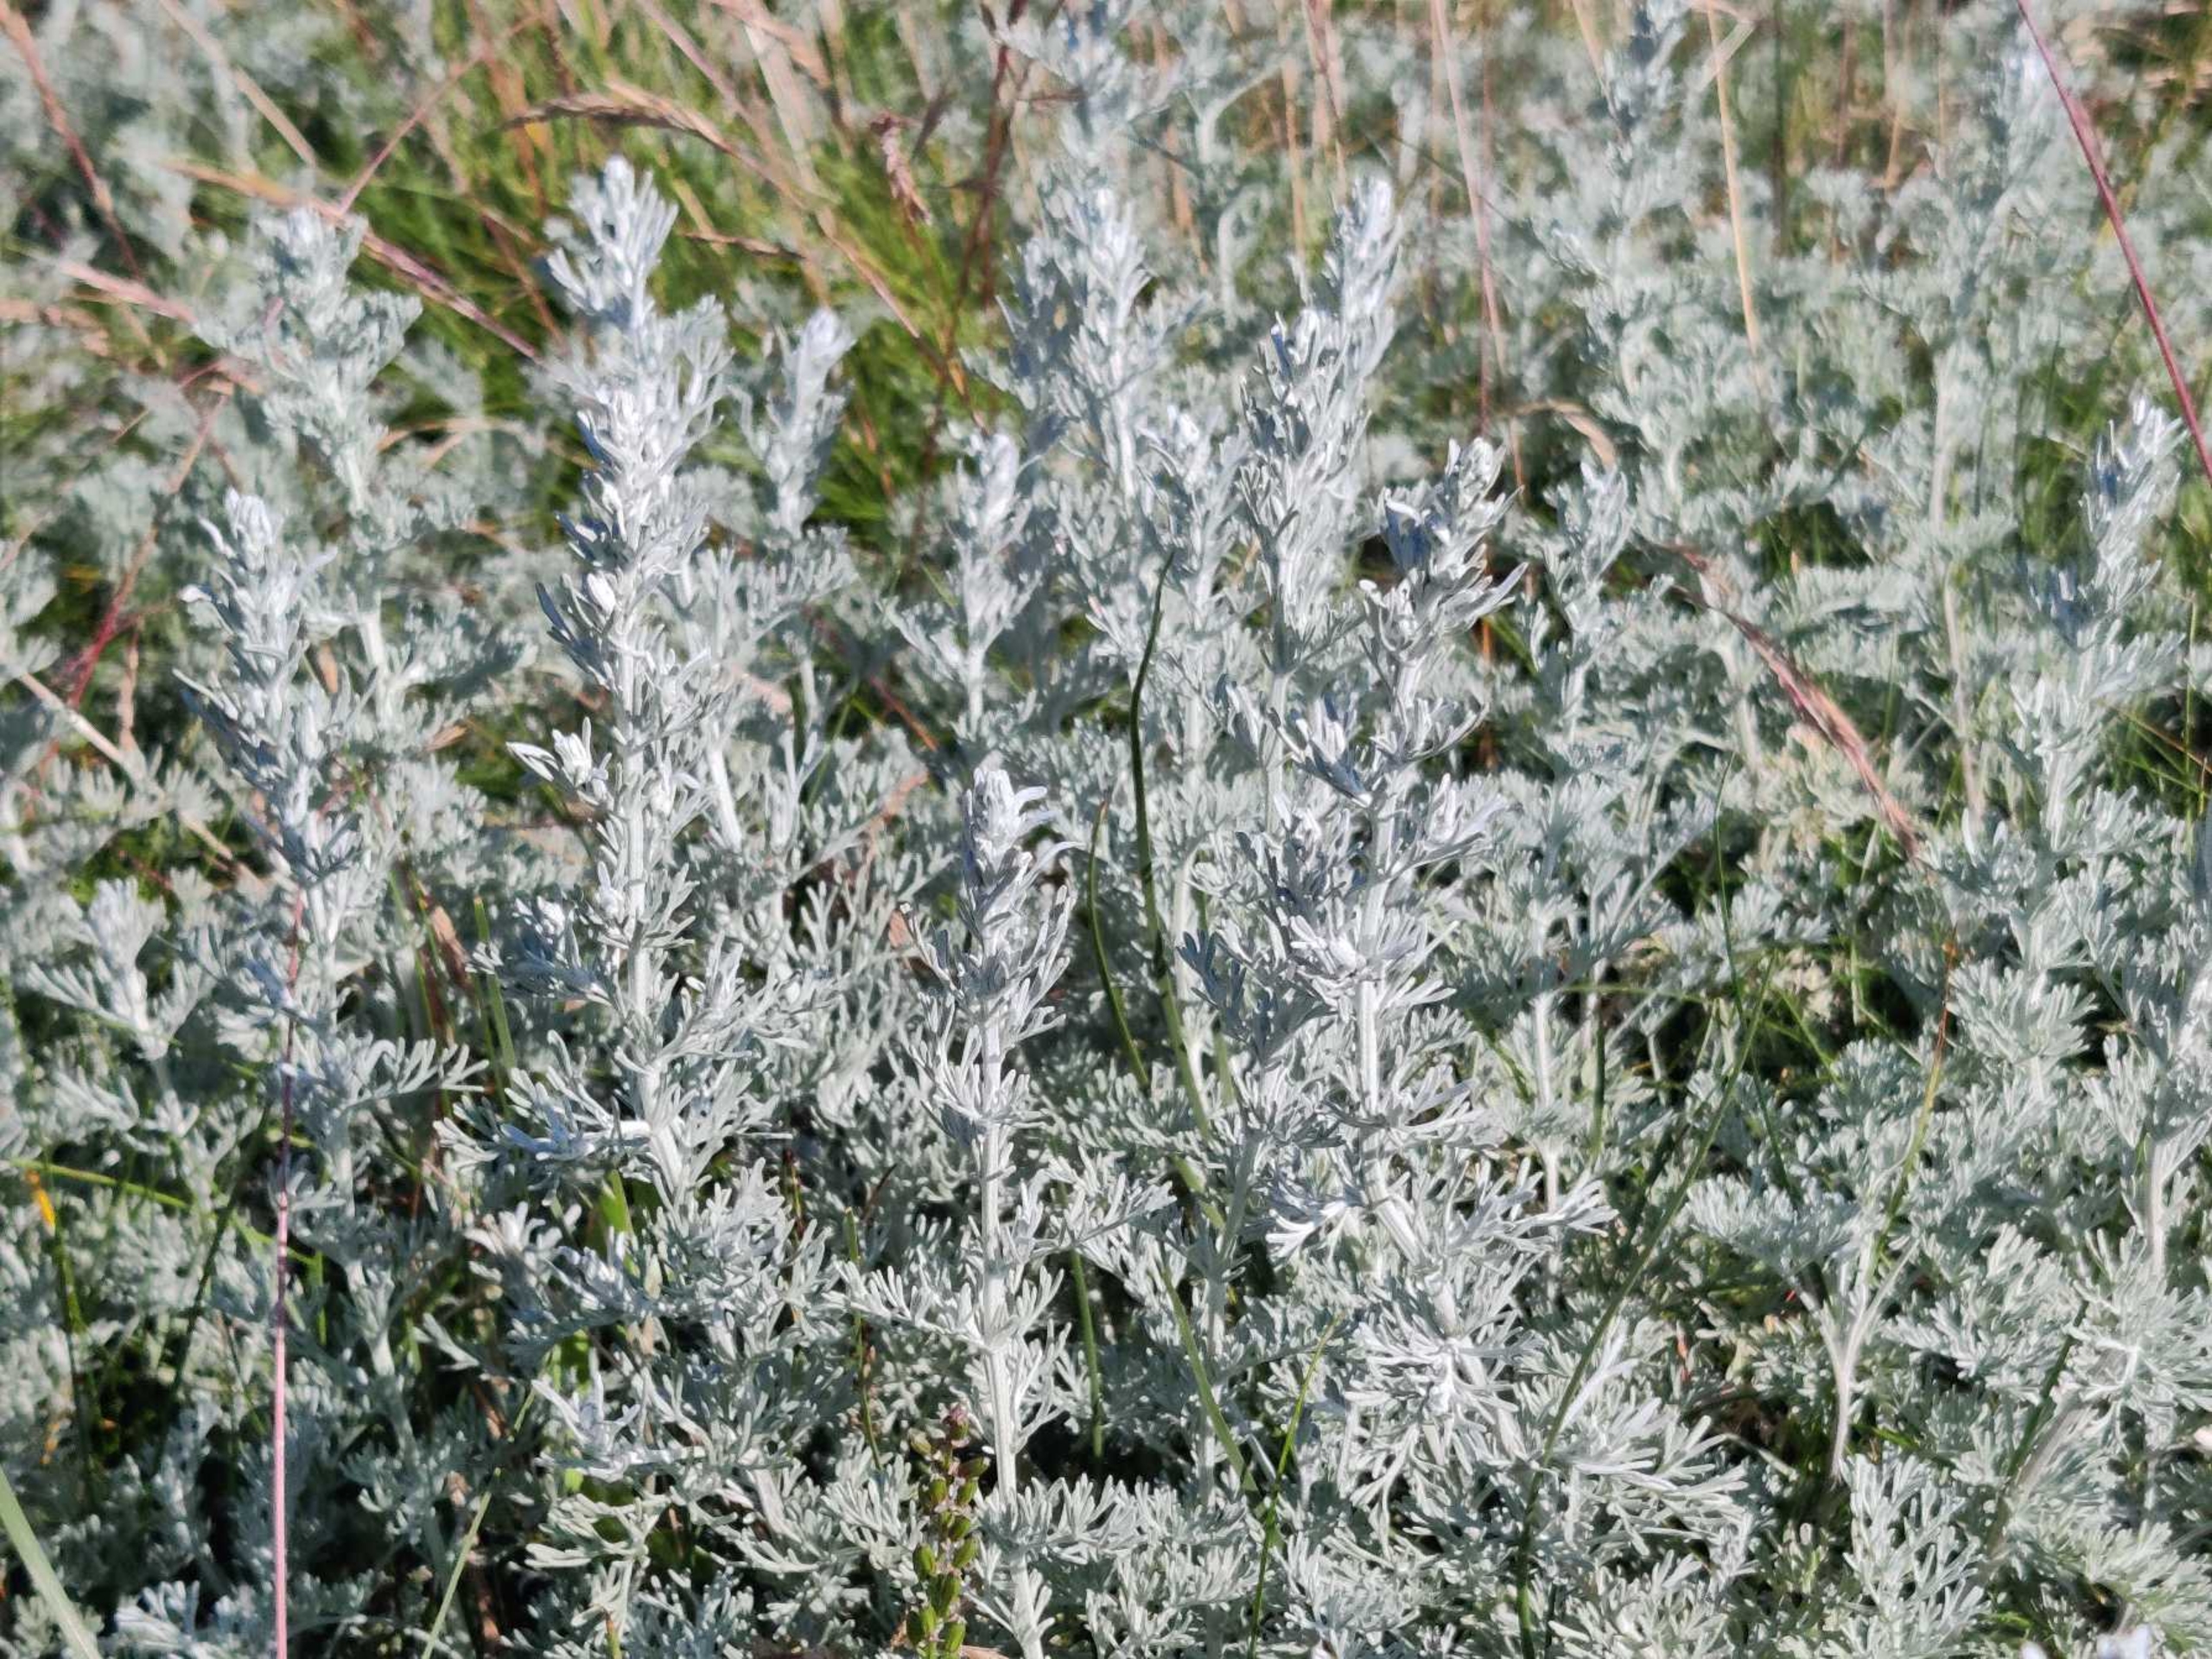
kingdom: Plantae
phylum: Tracheophyta
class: Magnoliopsida
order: Asterales
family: Asteraceae
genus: Artemisia
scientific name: Artemisia maritima
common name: Strandmalurt
